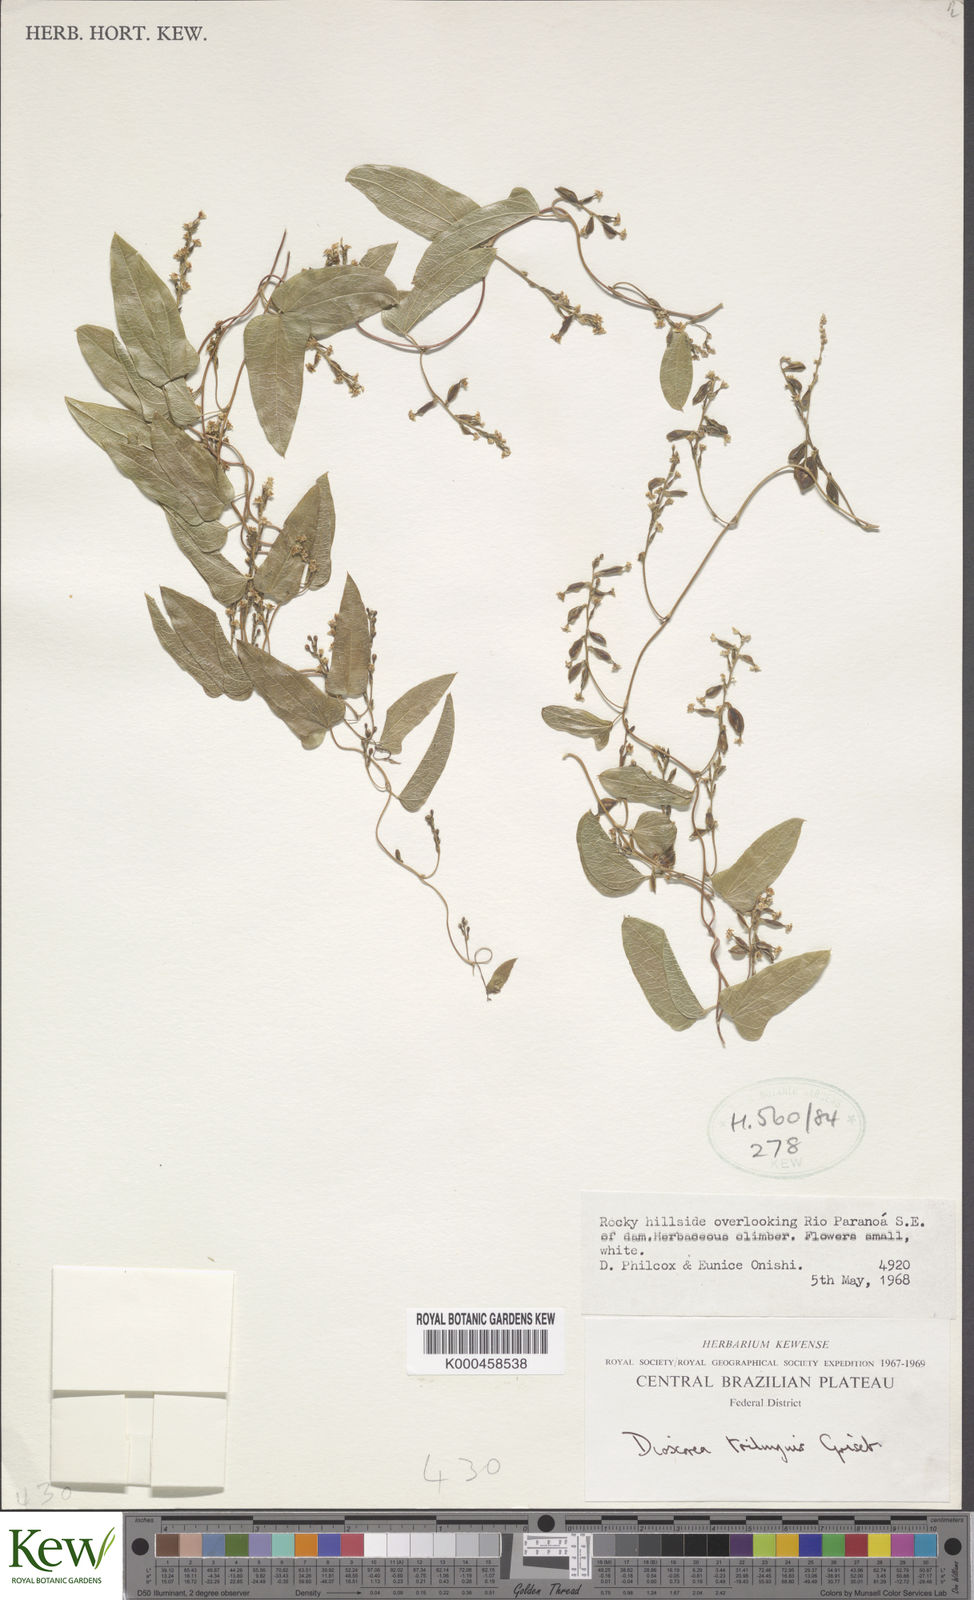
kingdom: Plantae
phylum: Tracheophyta
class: Liliopsida
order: Dioscoreales
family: Dioscoreaceae
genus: Dioscorea
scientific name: Dioscorea trilinguis
